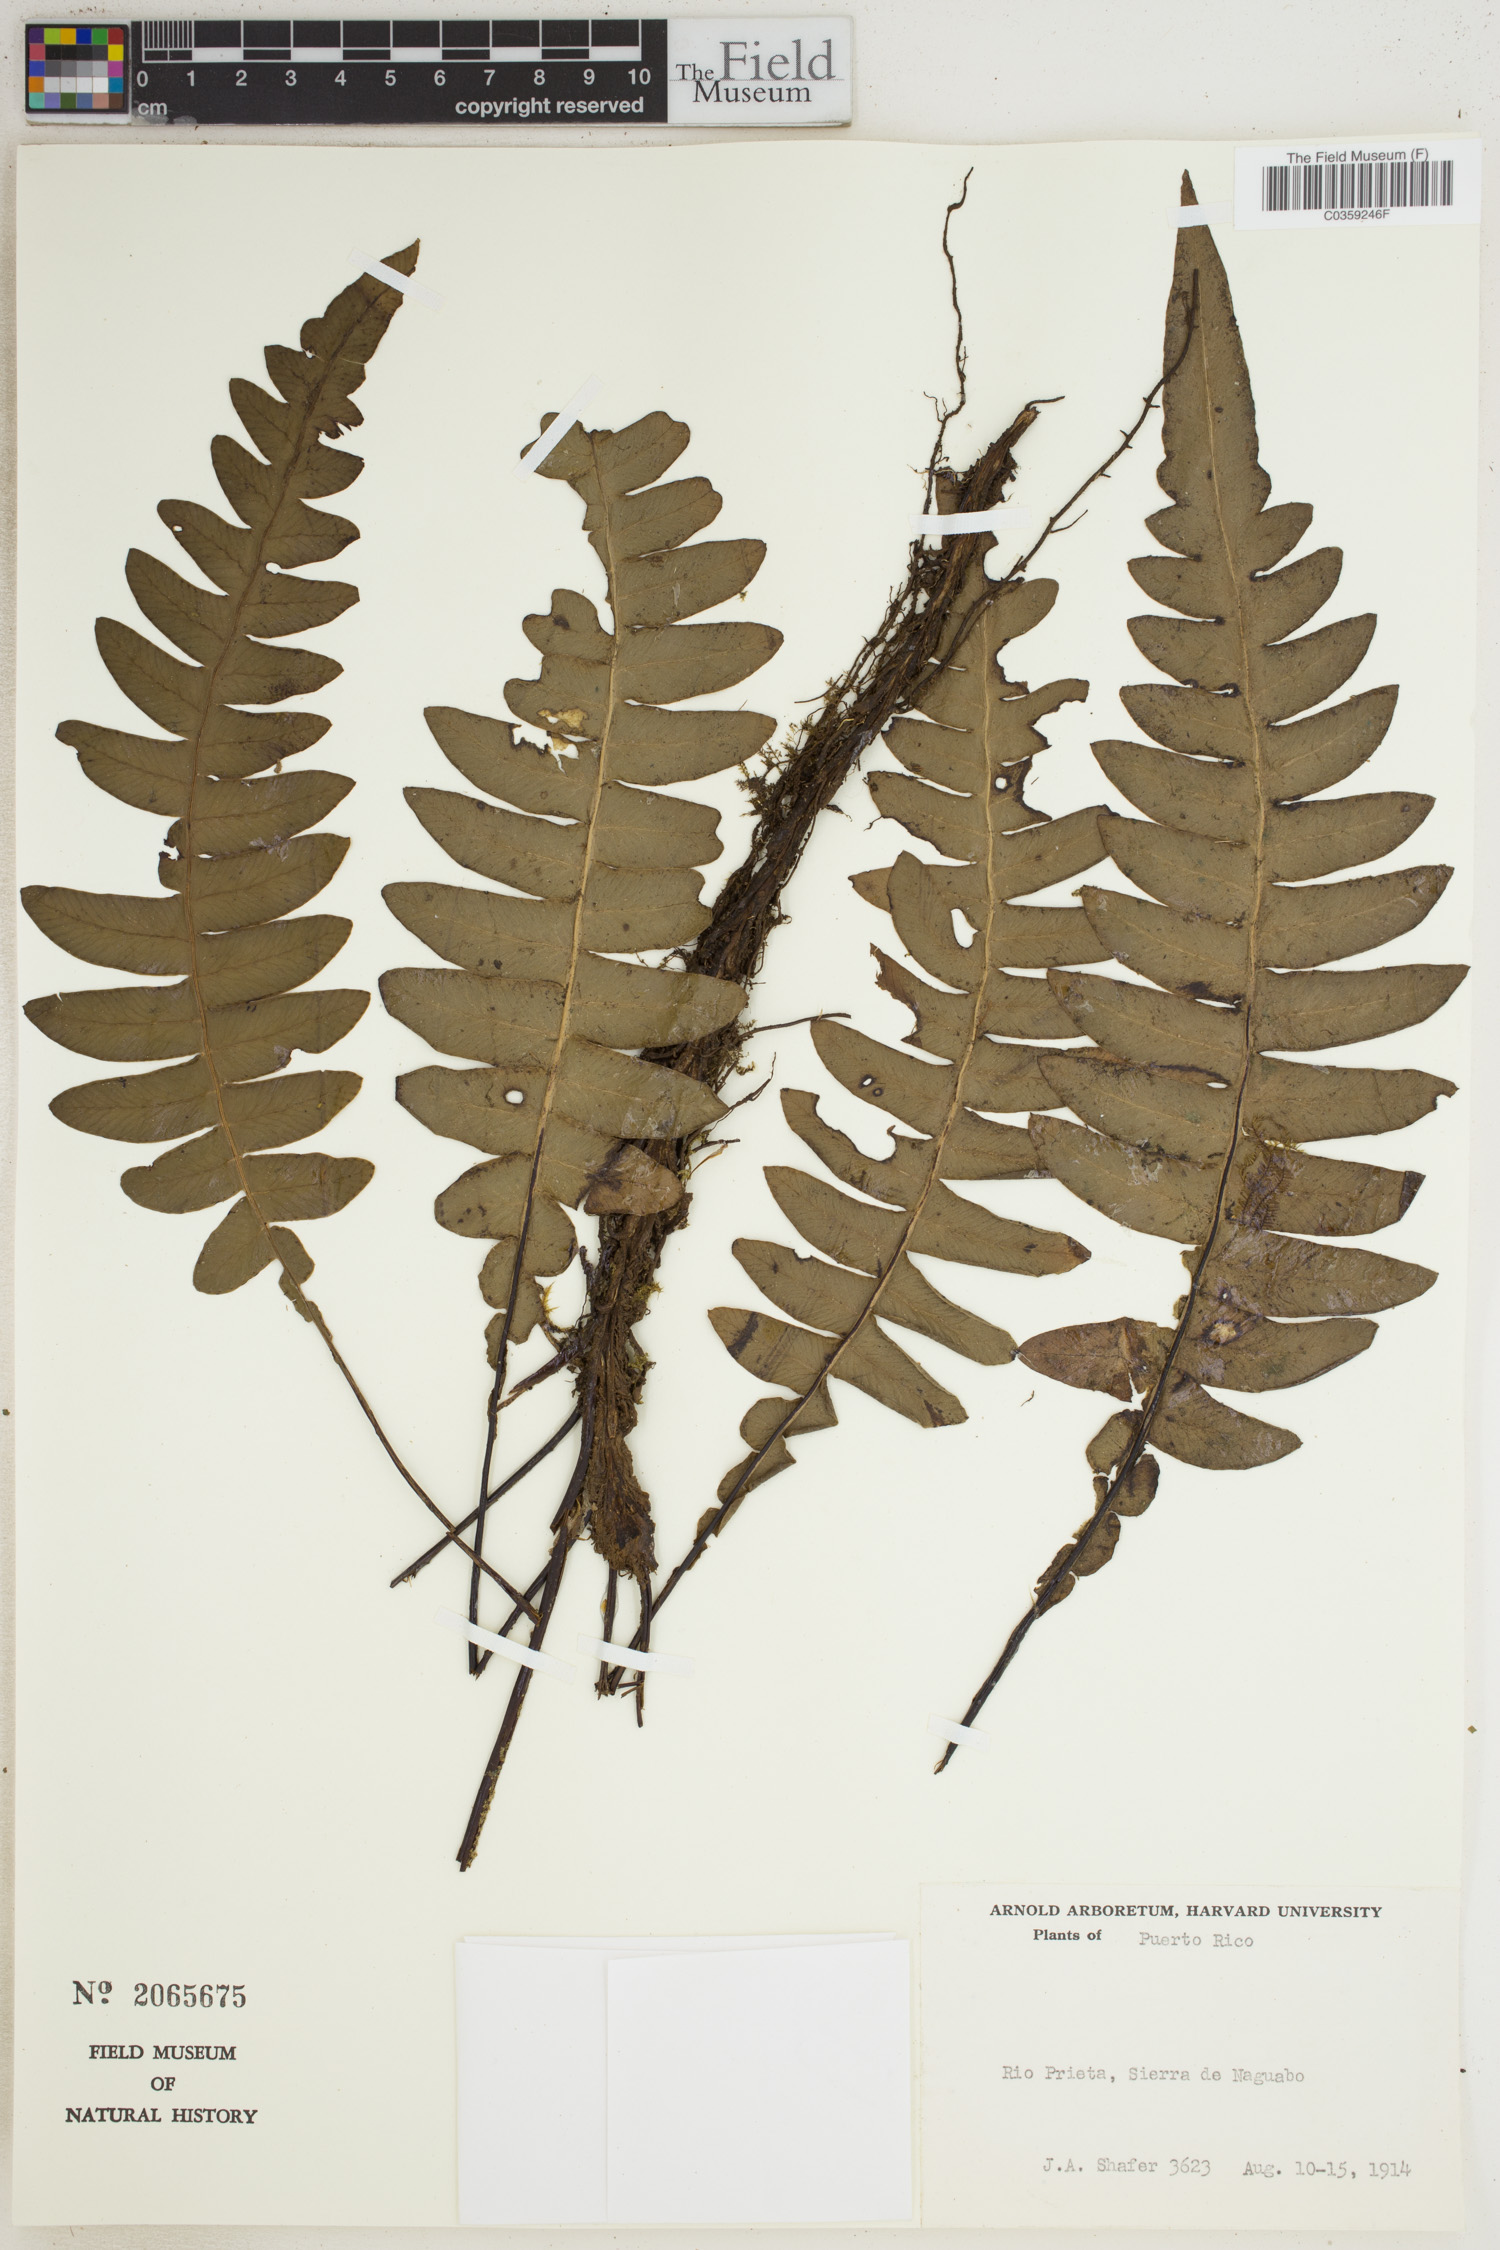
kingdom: Plantae
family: Pteridophyta
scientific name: Pteridophyta
